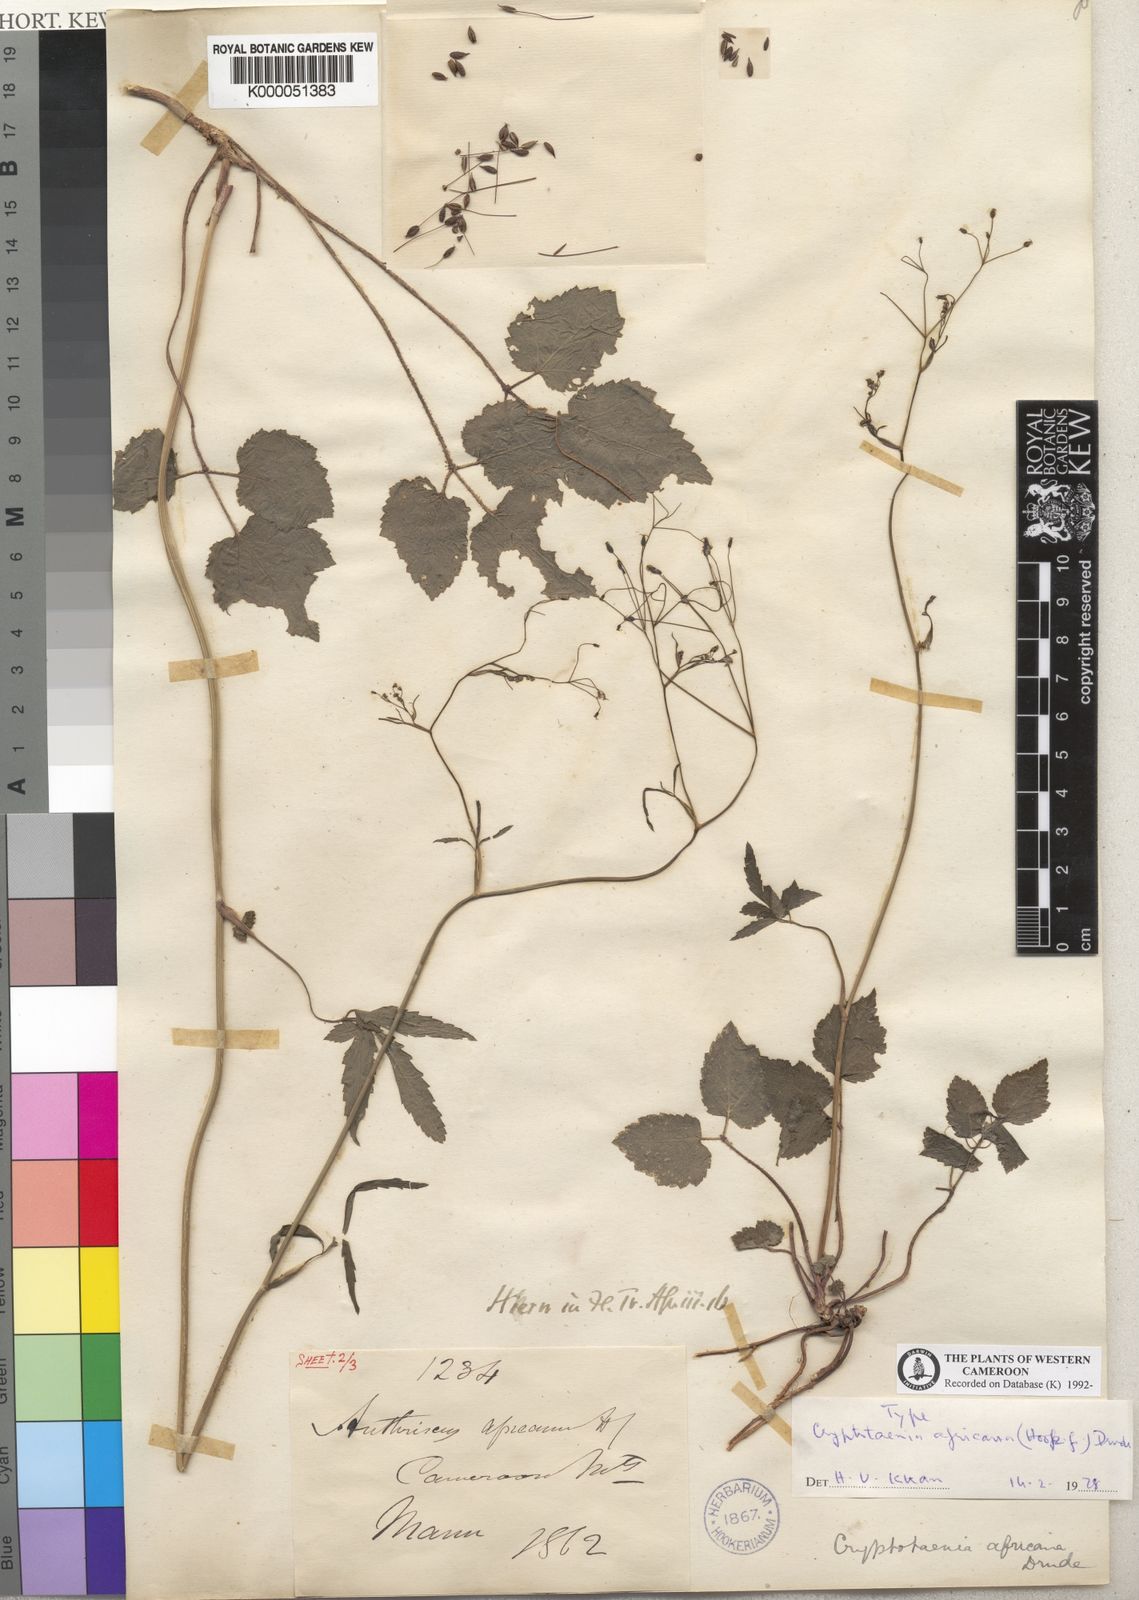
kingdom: Plantae
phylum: Tracheophyta
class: Magnoliopsida
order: Apiales
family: Apiaceae
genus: Cryptotaenia
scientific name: Cryptotaenia africana
